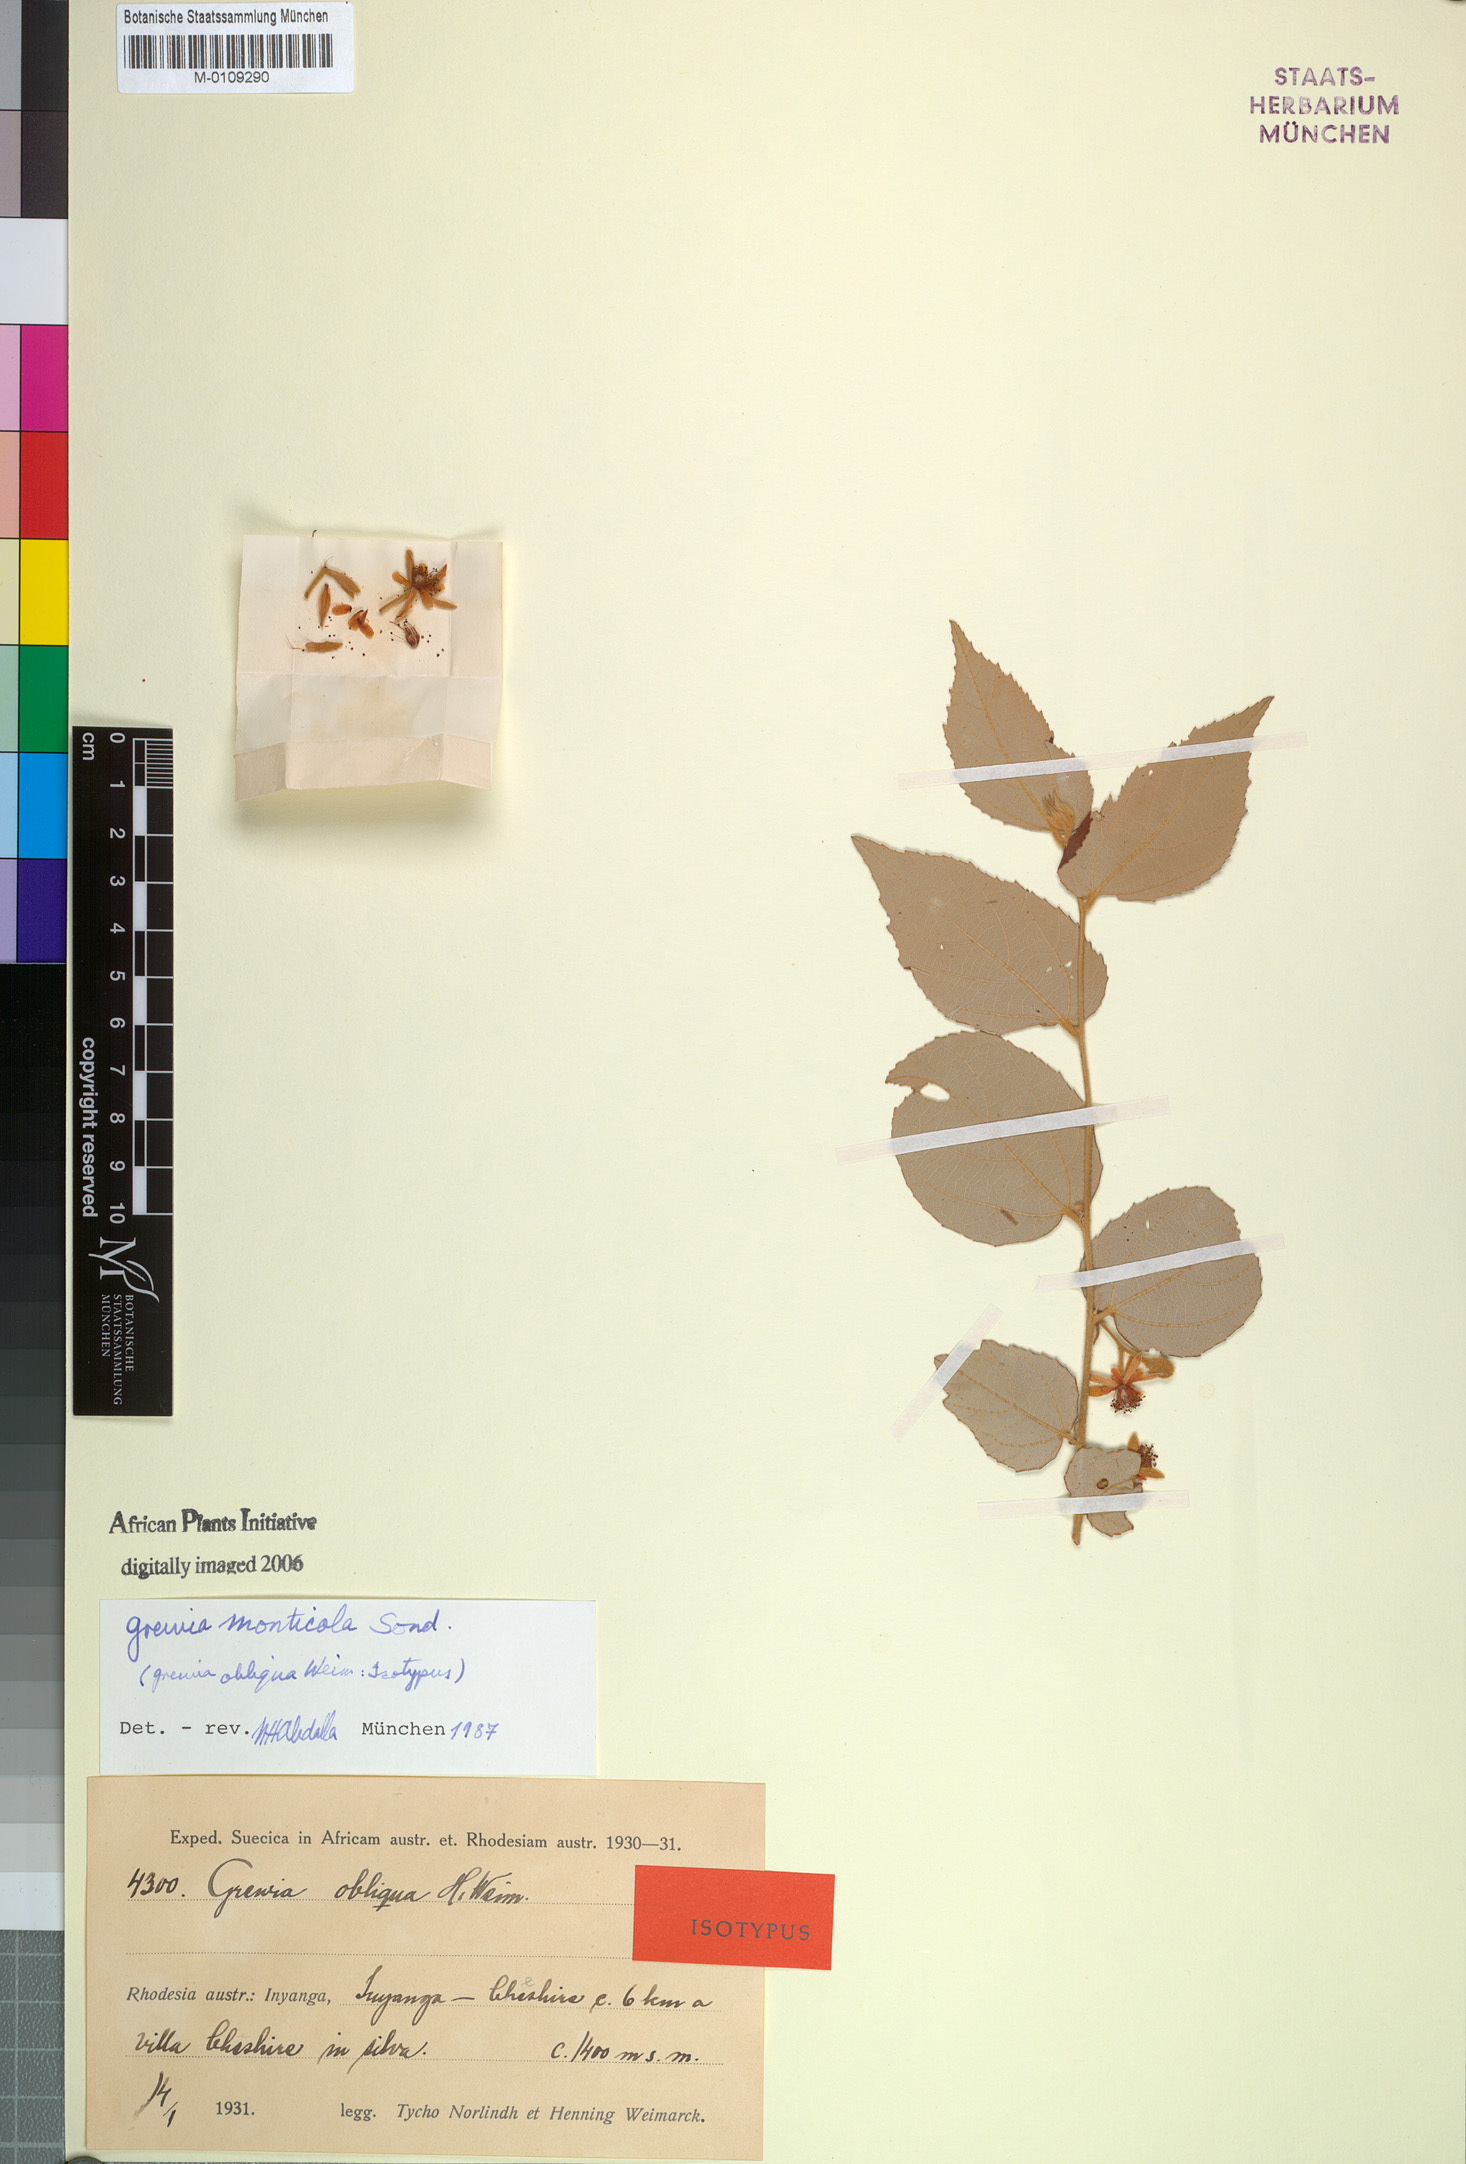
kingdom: Plantae
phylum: Tracheophyta
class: Magnoliopsida
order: Malvales
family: Malvaceae
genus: Grewia
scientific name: Grewia monticola
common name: Grey raisin
